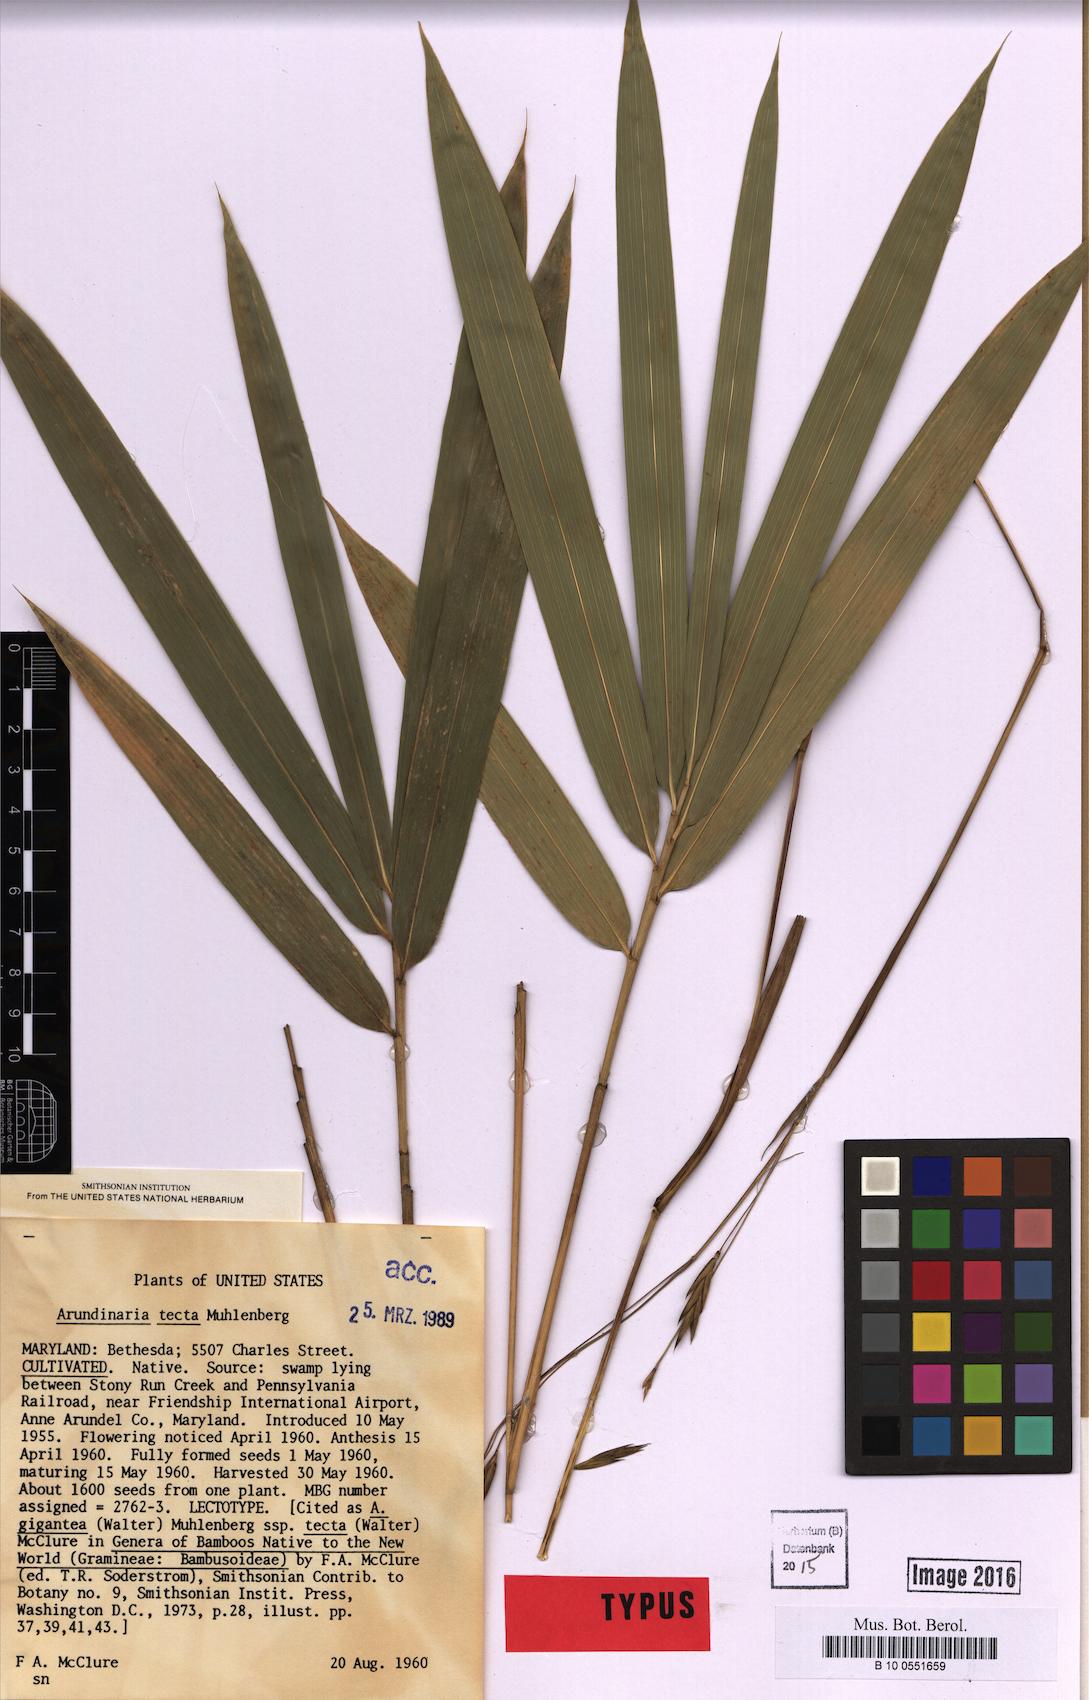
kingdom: Plantae
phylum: Tracheophyta
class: Liliopsida
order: Poales
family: Poaceae
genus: Arundinaria
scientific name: Arundinaria tecta
